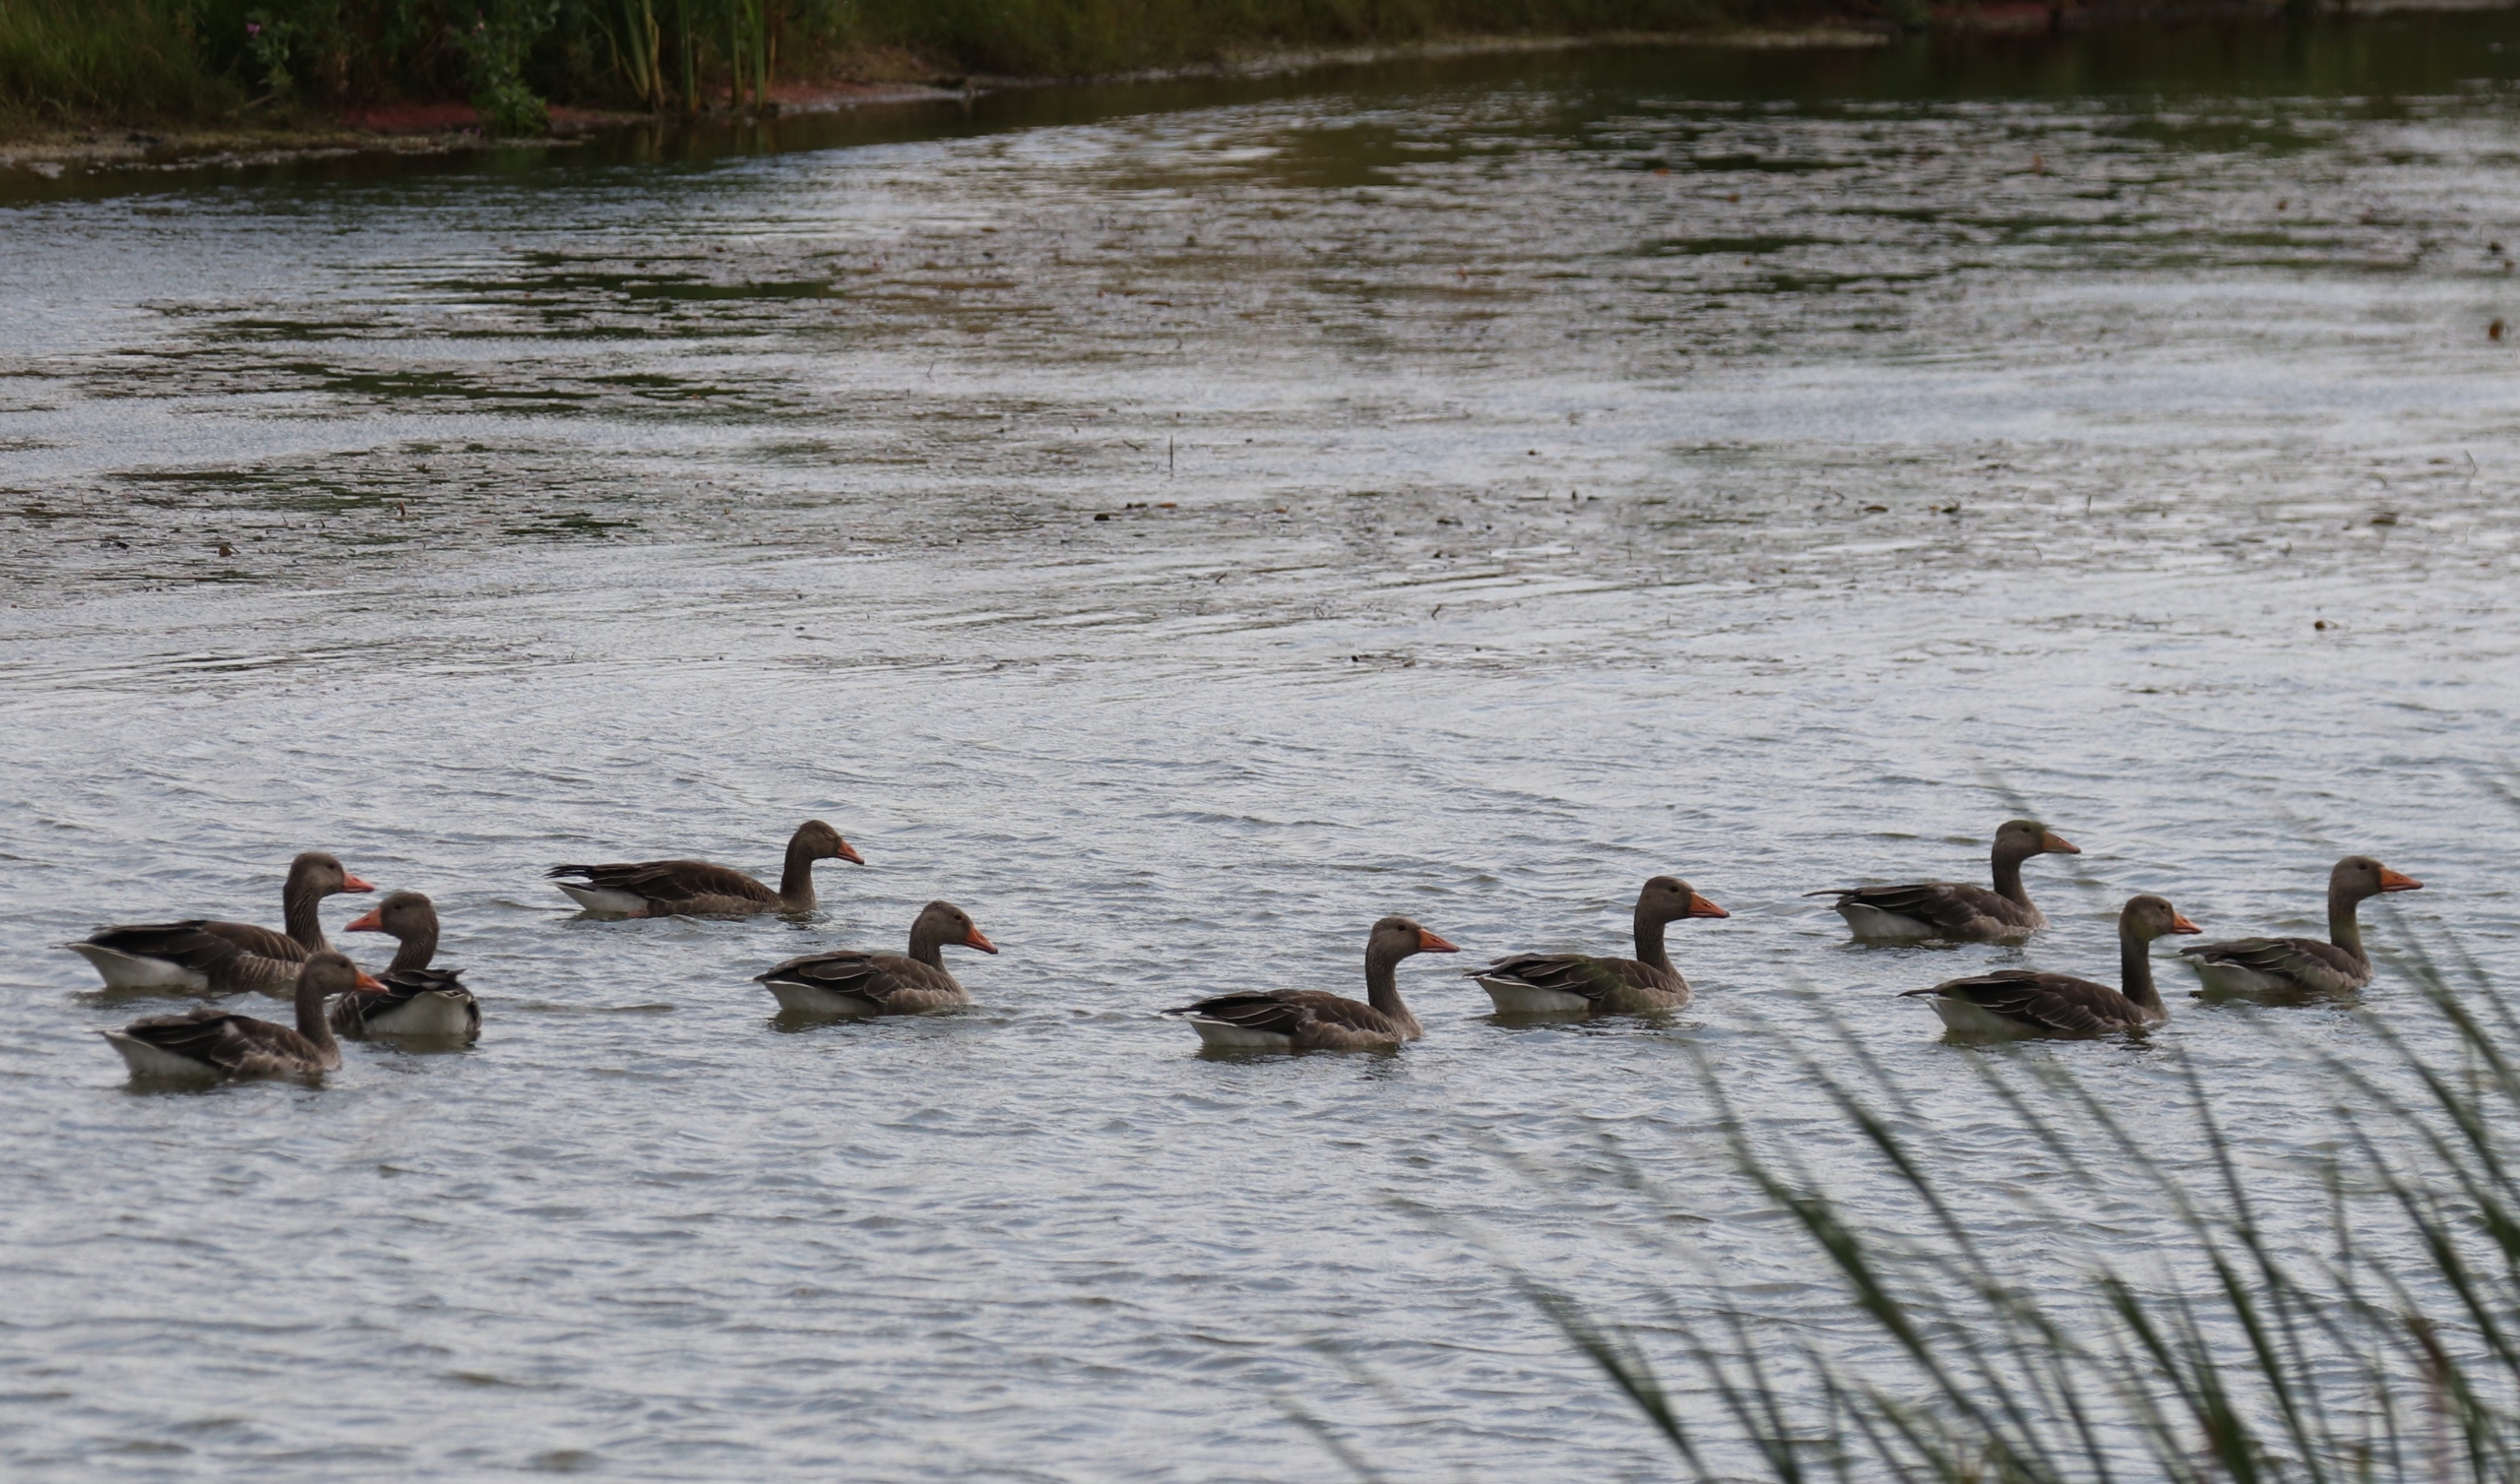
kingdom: Animalia
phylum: Chordata
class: Aves
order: Anseriformes
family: Anatidae
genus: Anser
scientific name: Anser anser
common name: Grågås
